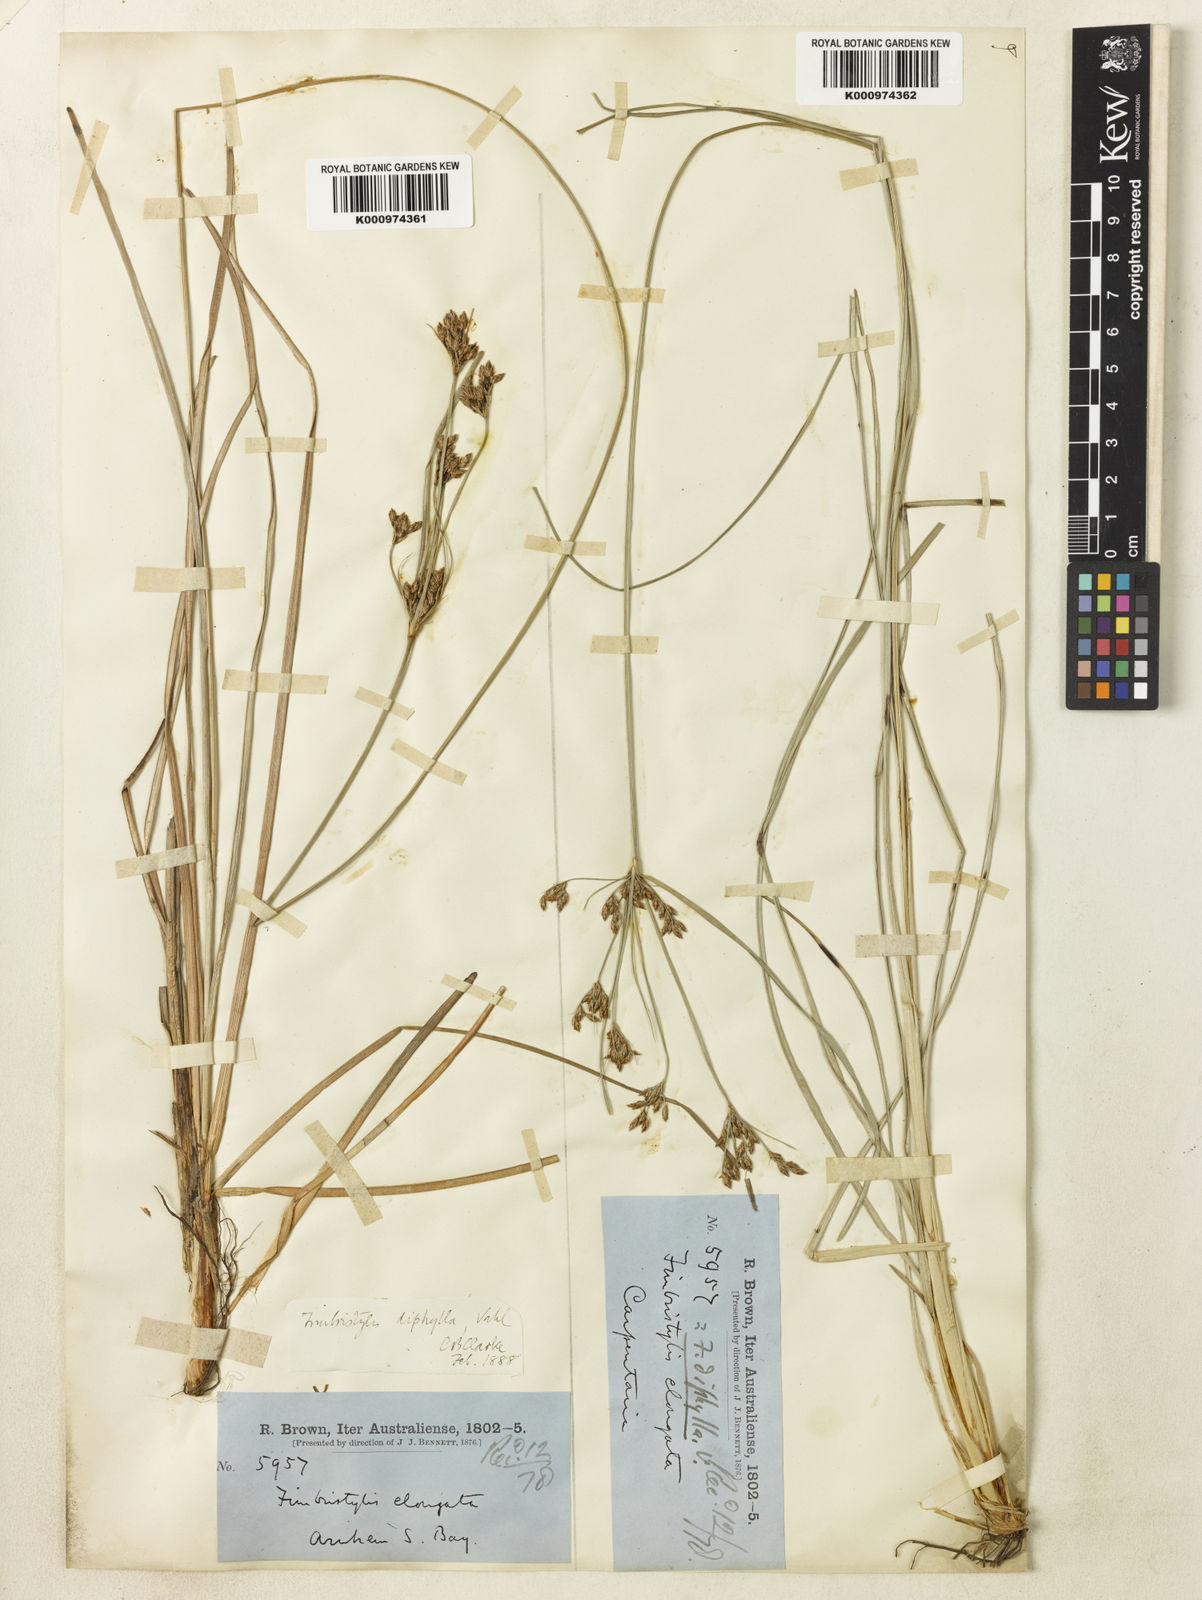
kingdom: Plantae
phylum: Tracheophyta
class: Liliopsida
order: Poales
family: Cyperaceae
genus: Fimbristylis
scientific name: Fimbristylis dichotoma
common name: Forked fimbry
